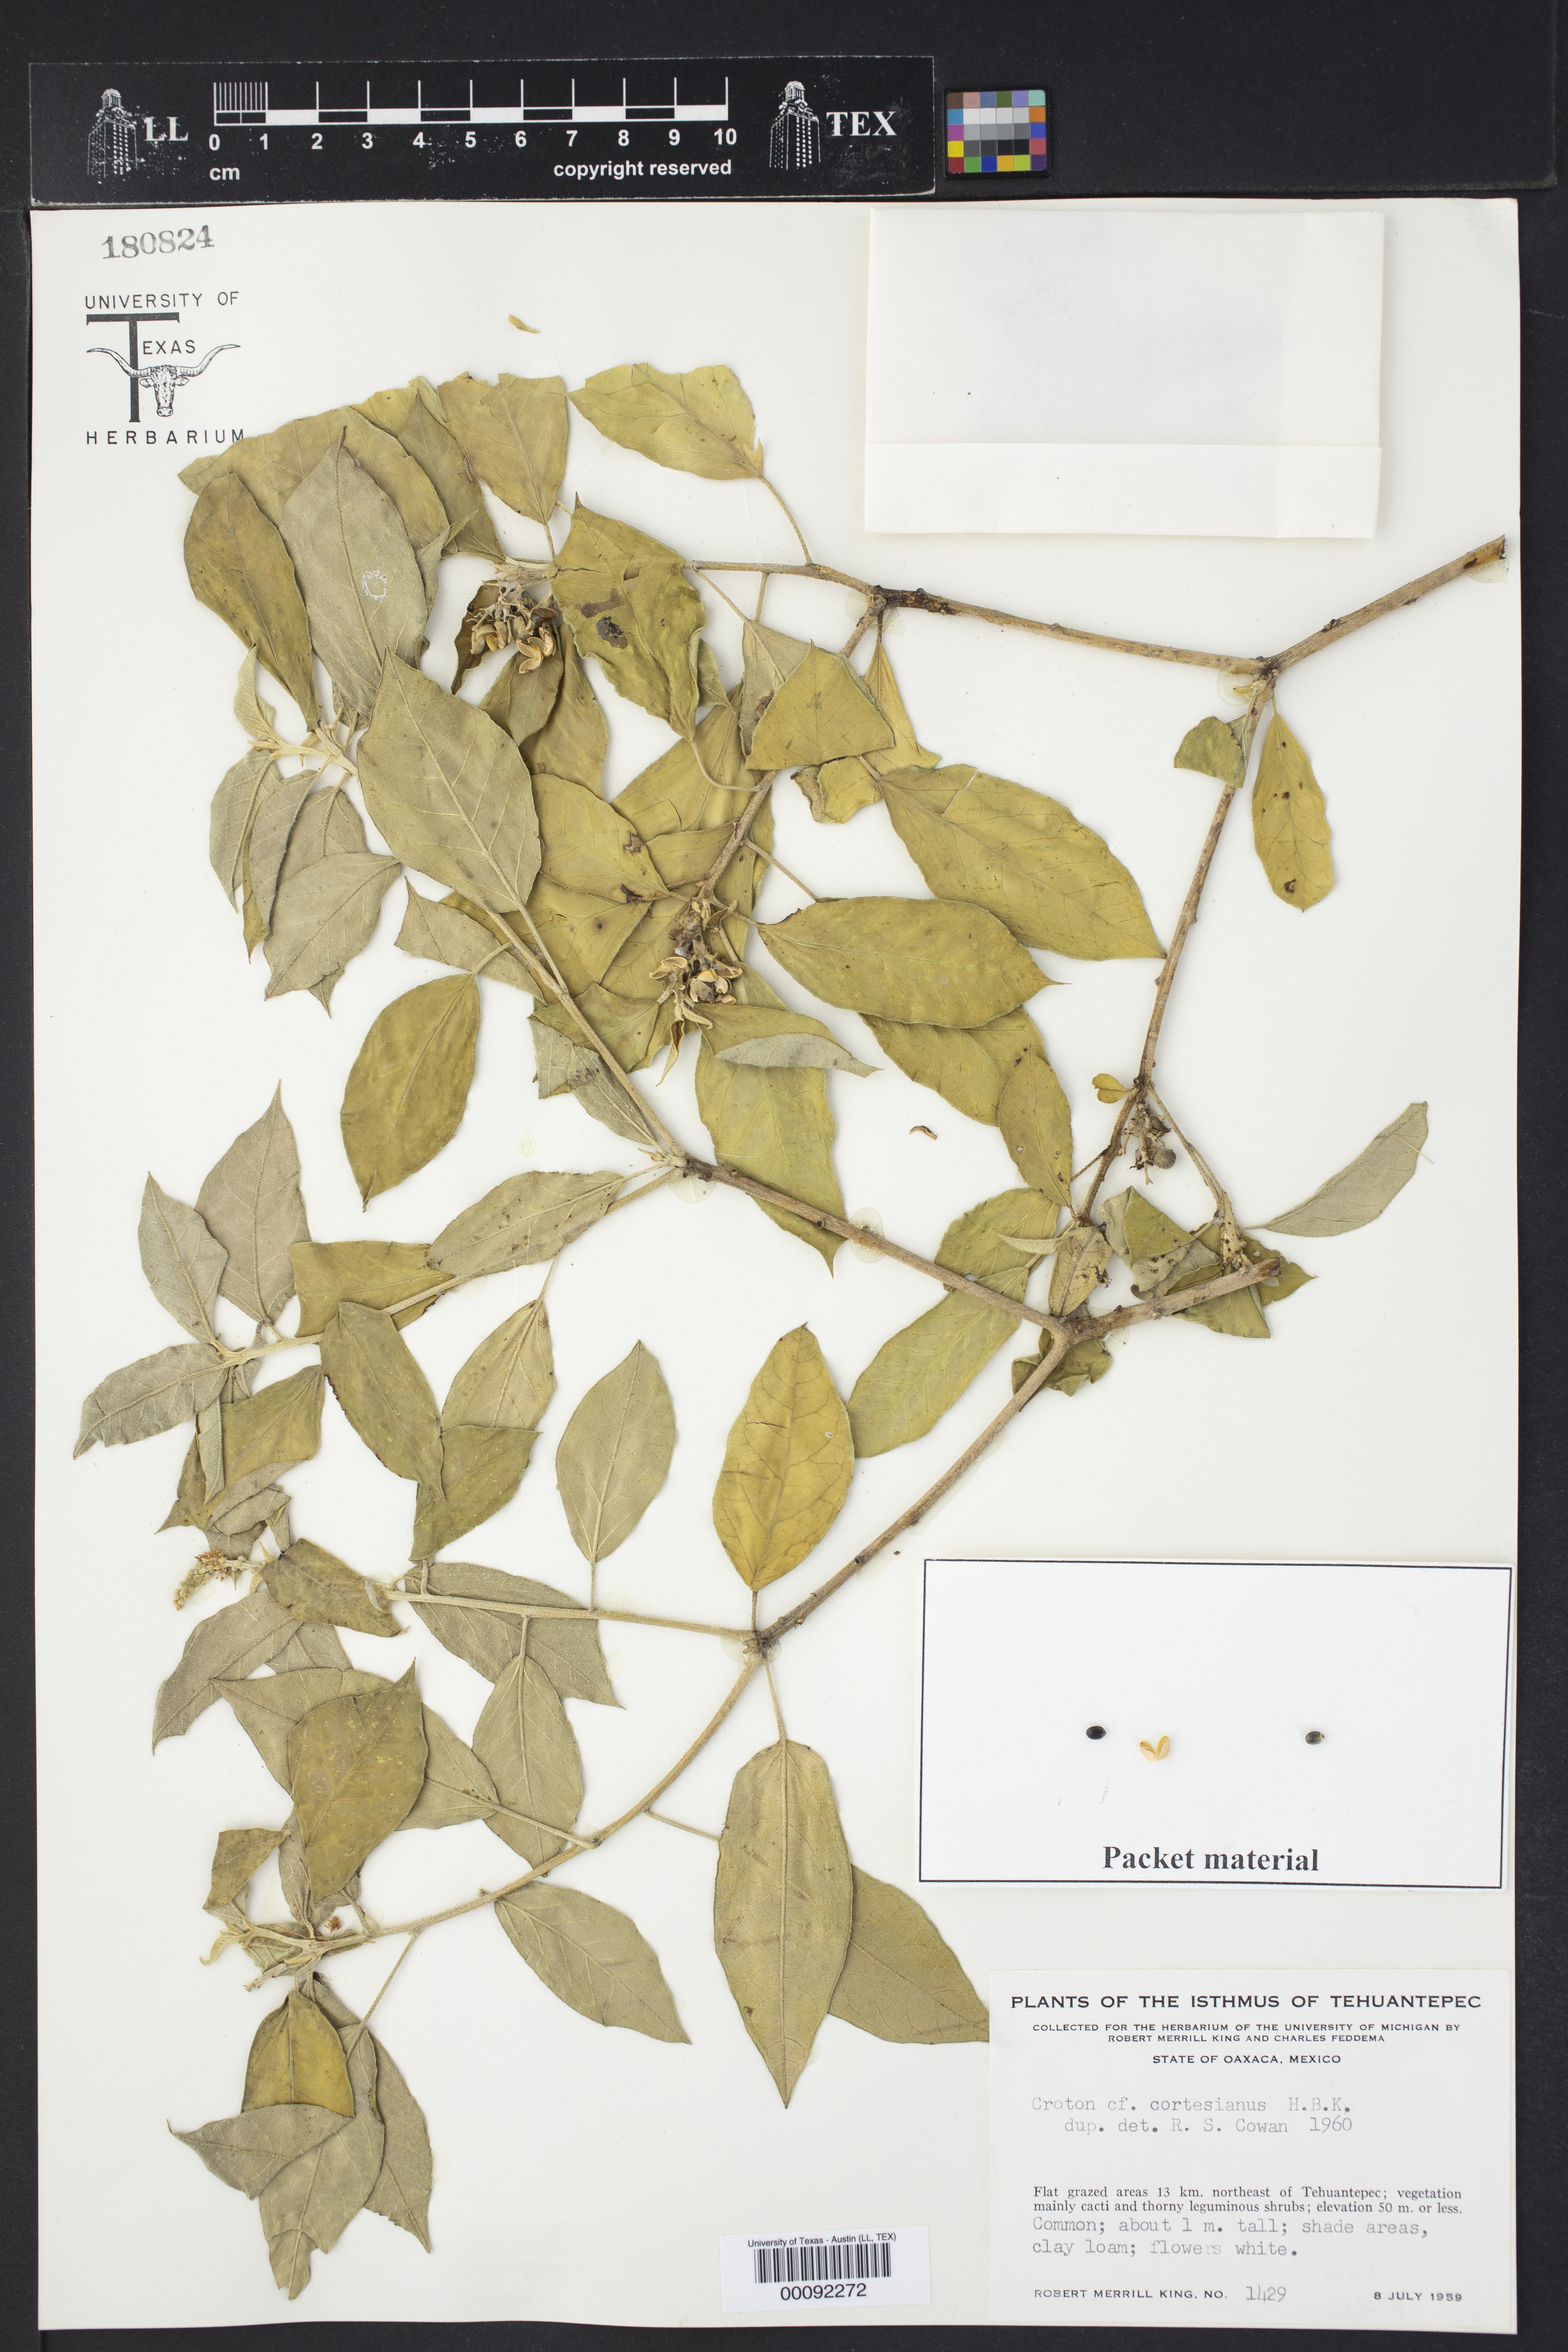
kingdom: Plantae
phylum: Tracheophyta
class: Magnoliopsida
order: Malpighiales
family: Euphorbiaceae
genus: Croton
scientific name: Croton cortesianus
